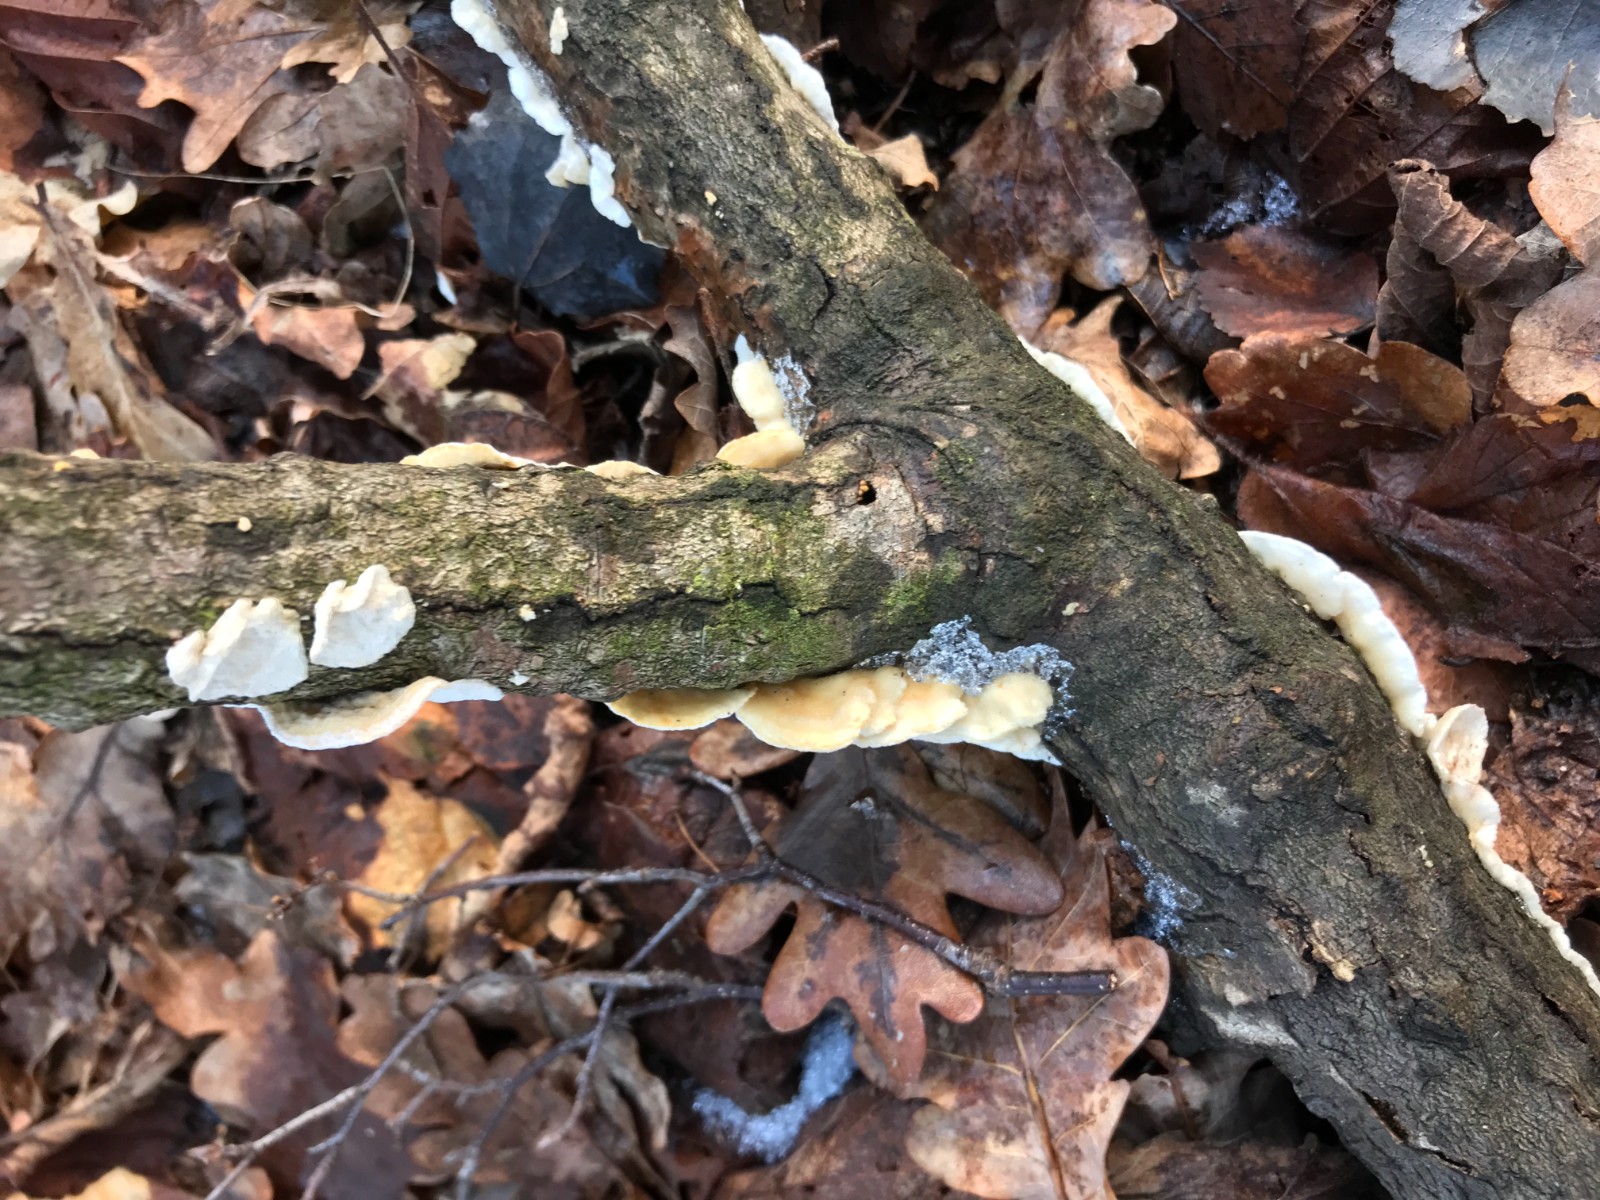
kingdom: Fungi
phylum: Basidiomycota
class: Agaricomycetes
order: Polyporales
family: Irpicaceae
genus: Byssomerulius
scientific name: Byssomerulius corium
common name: læder-åresvamp
